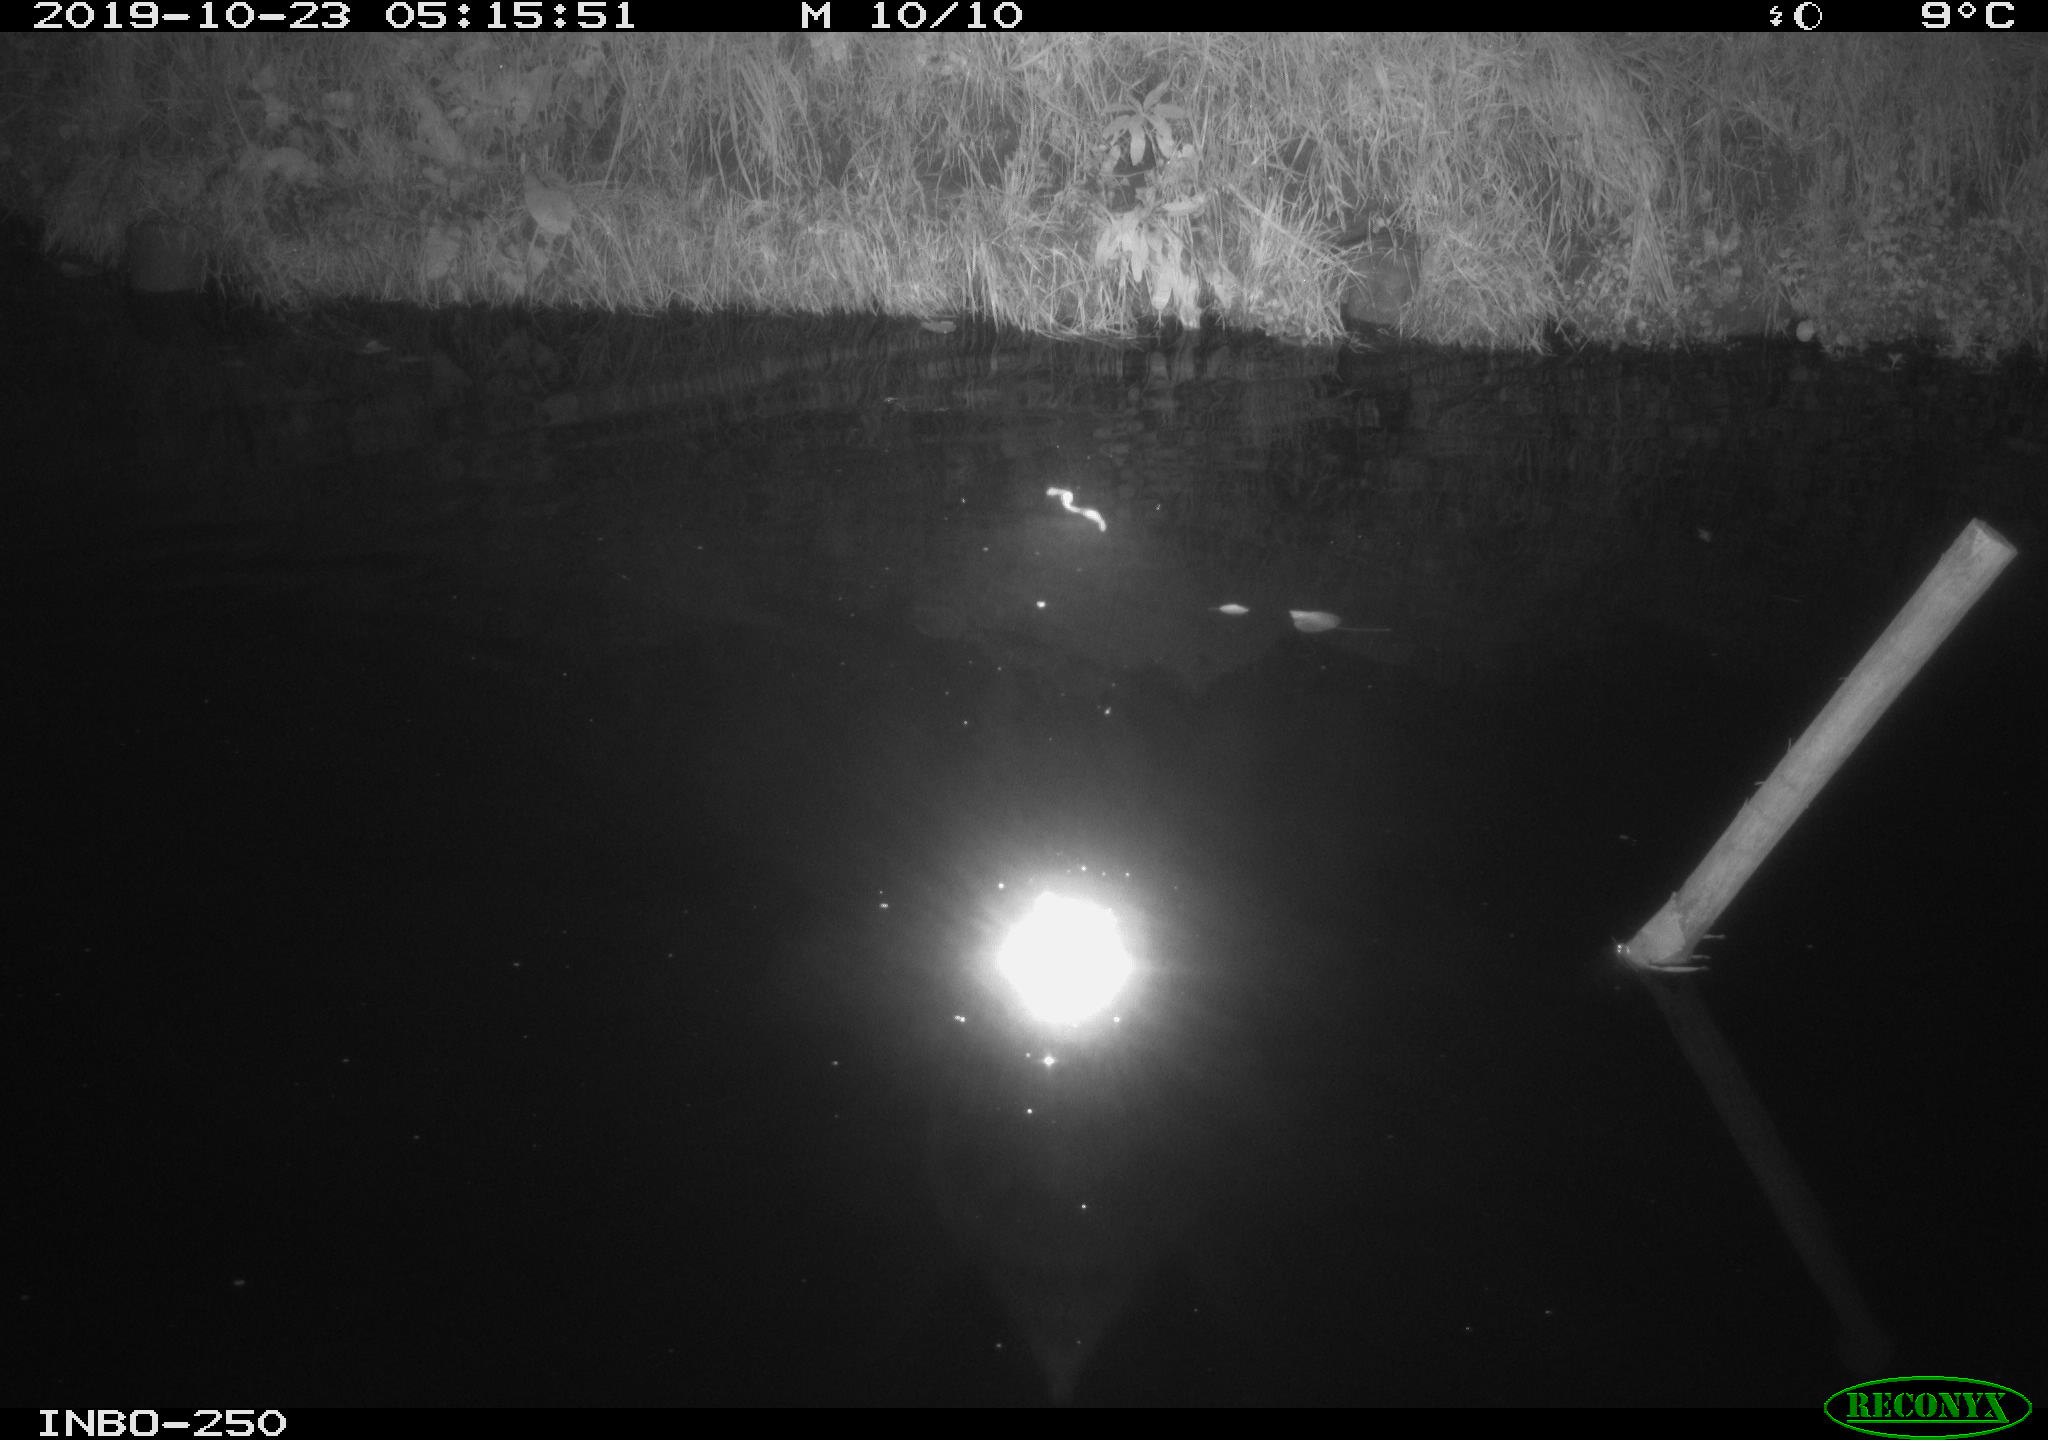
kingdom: Animalia
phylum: Chordata
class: Aves
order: Anseriformes
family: Anatidae
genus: Anas
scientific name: Anas platyrhynchos
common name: Mallard
